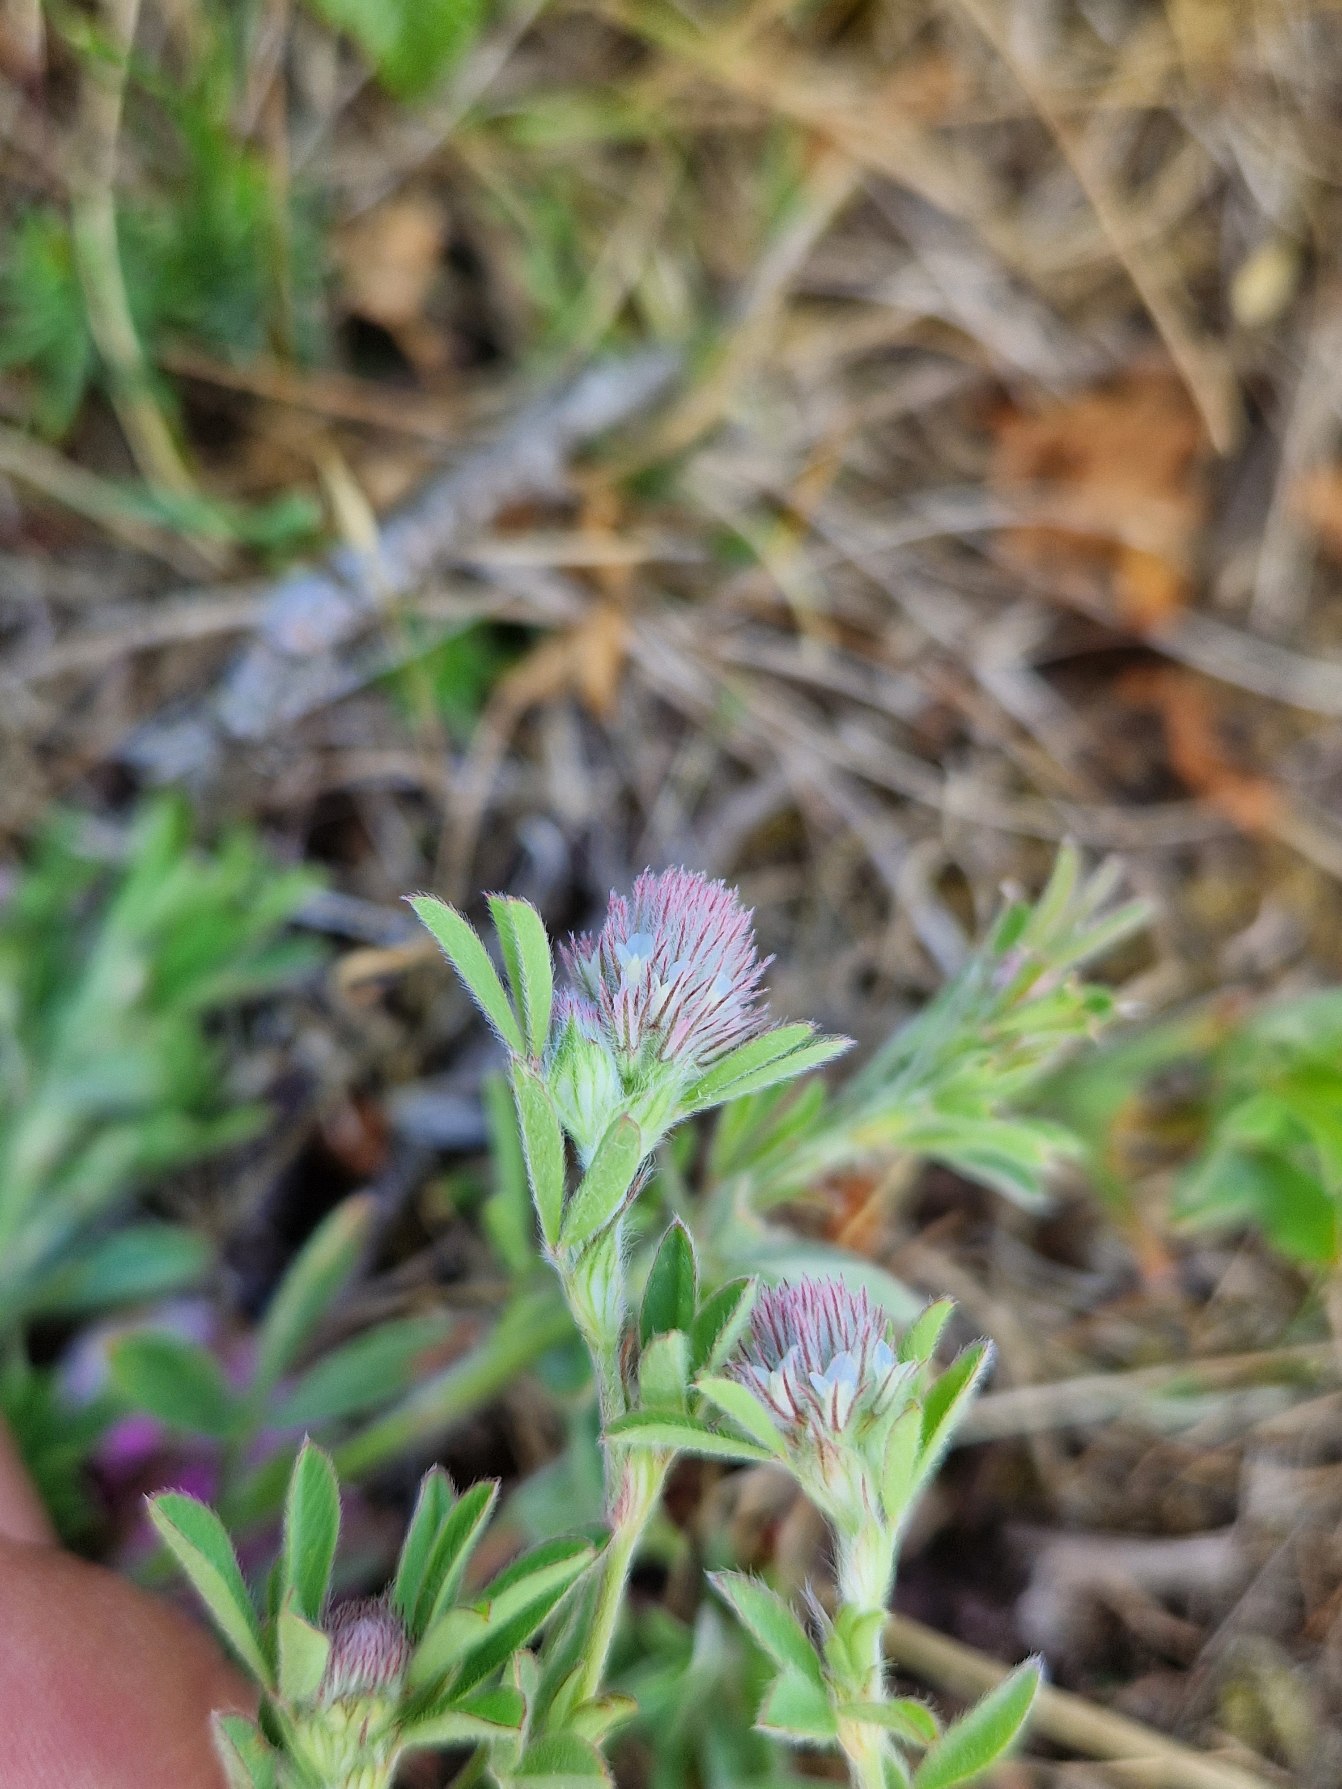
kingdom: Plantae
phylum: Tracheophyta
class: Magnoliopsida
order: Fabales
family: Fabaceae
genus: Trifolium
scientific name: Trifolium arvense
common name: Hare-kløver
